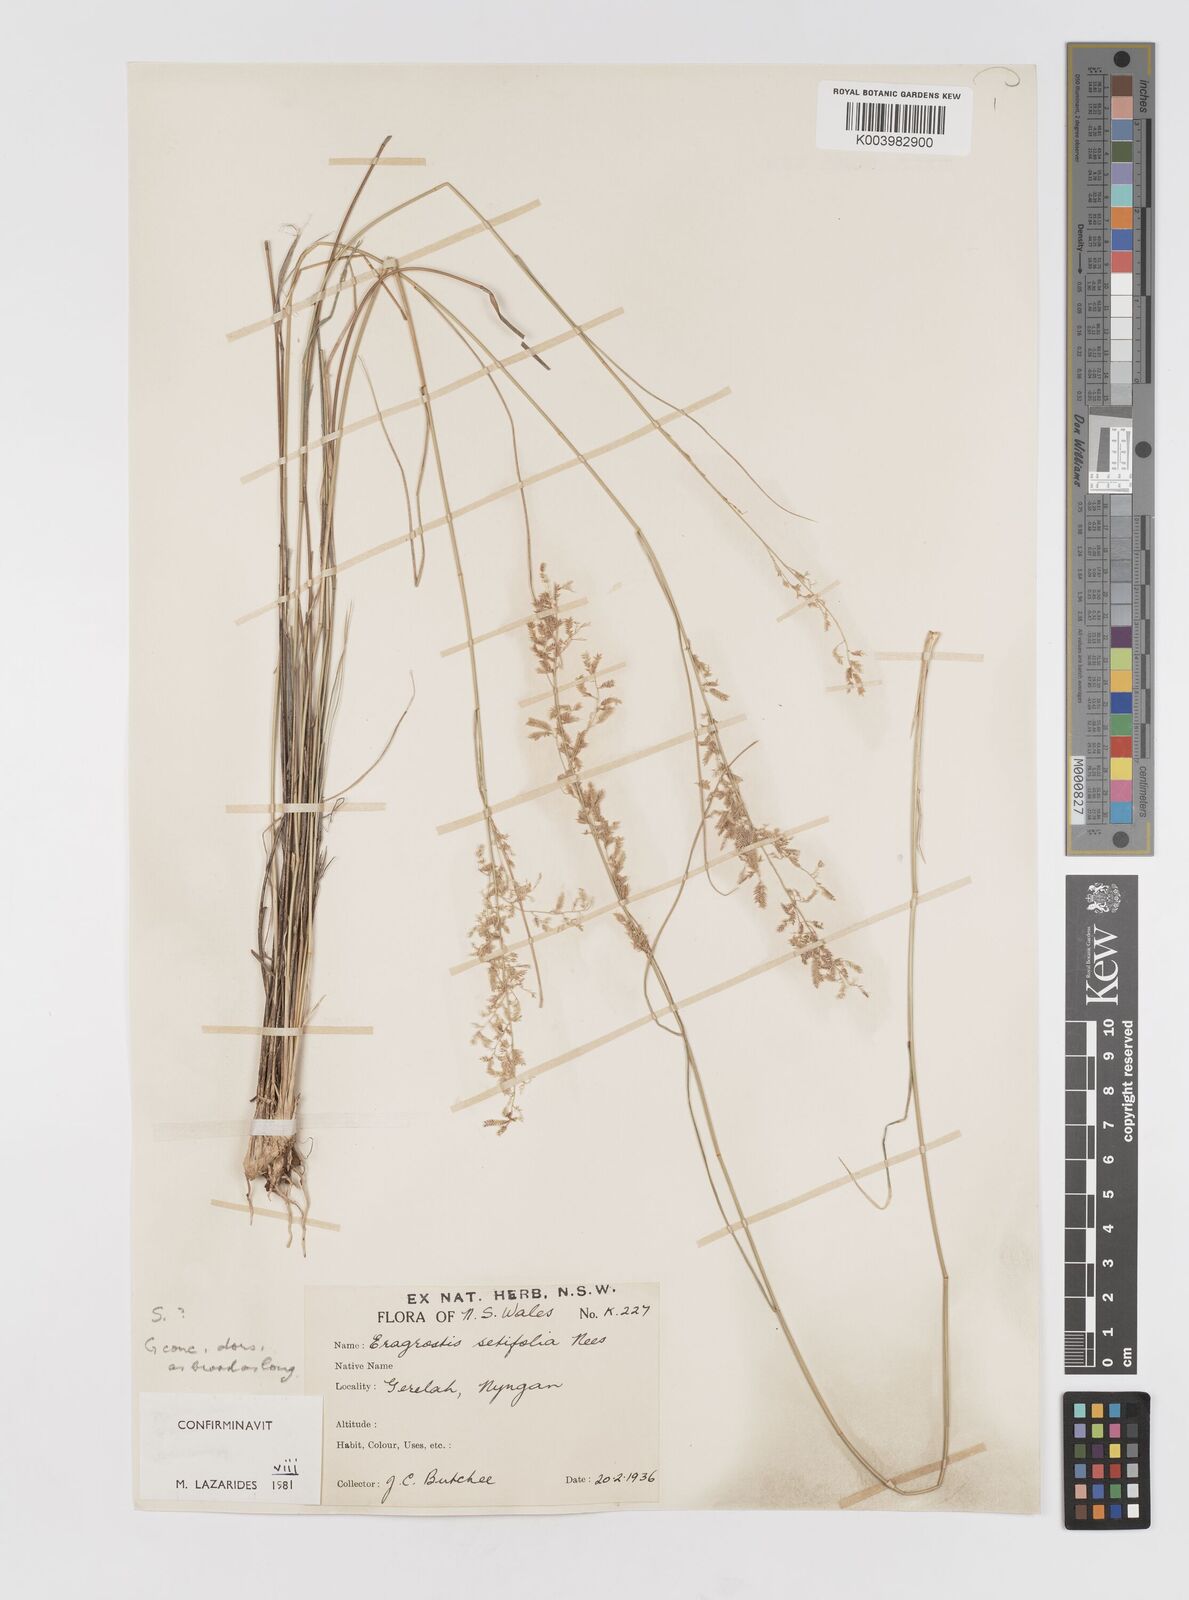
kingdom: Plantae
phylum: Tracheophyta
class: Liliopsida
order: Poales
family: Poaceae
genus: Eragrostis
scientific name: Eragrostis setifolia
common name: Bristleleaf lovegrass
